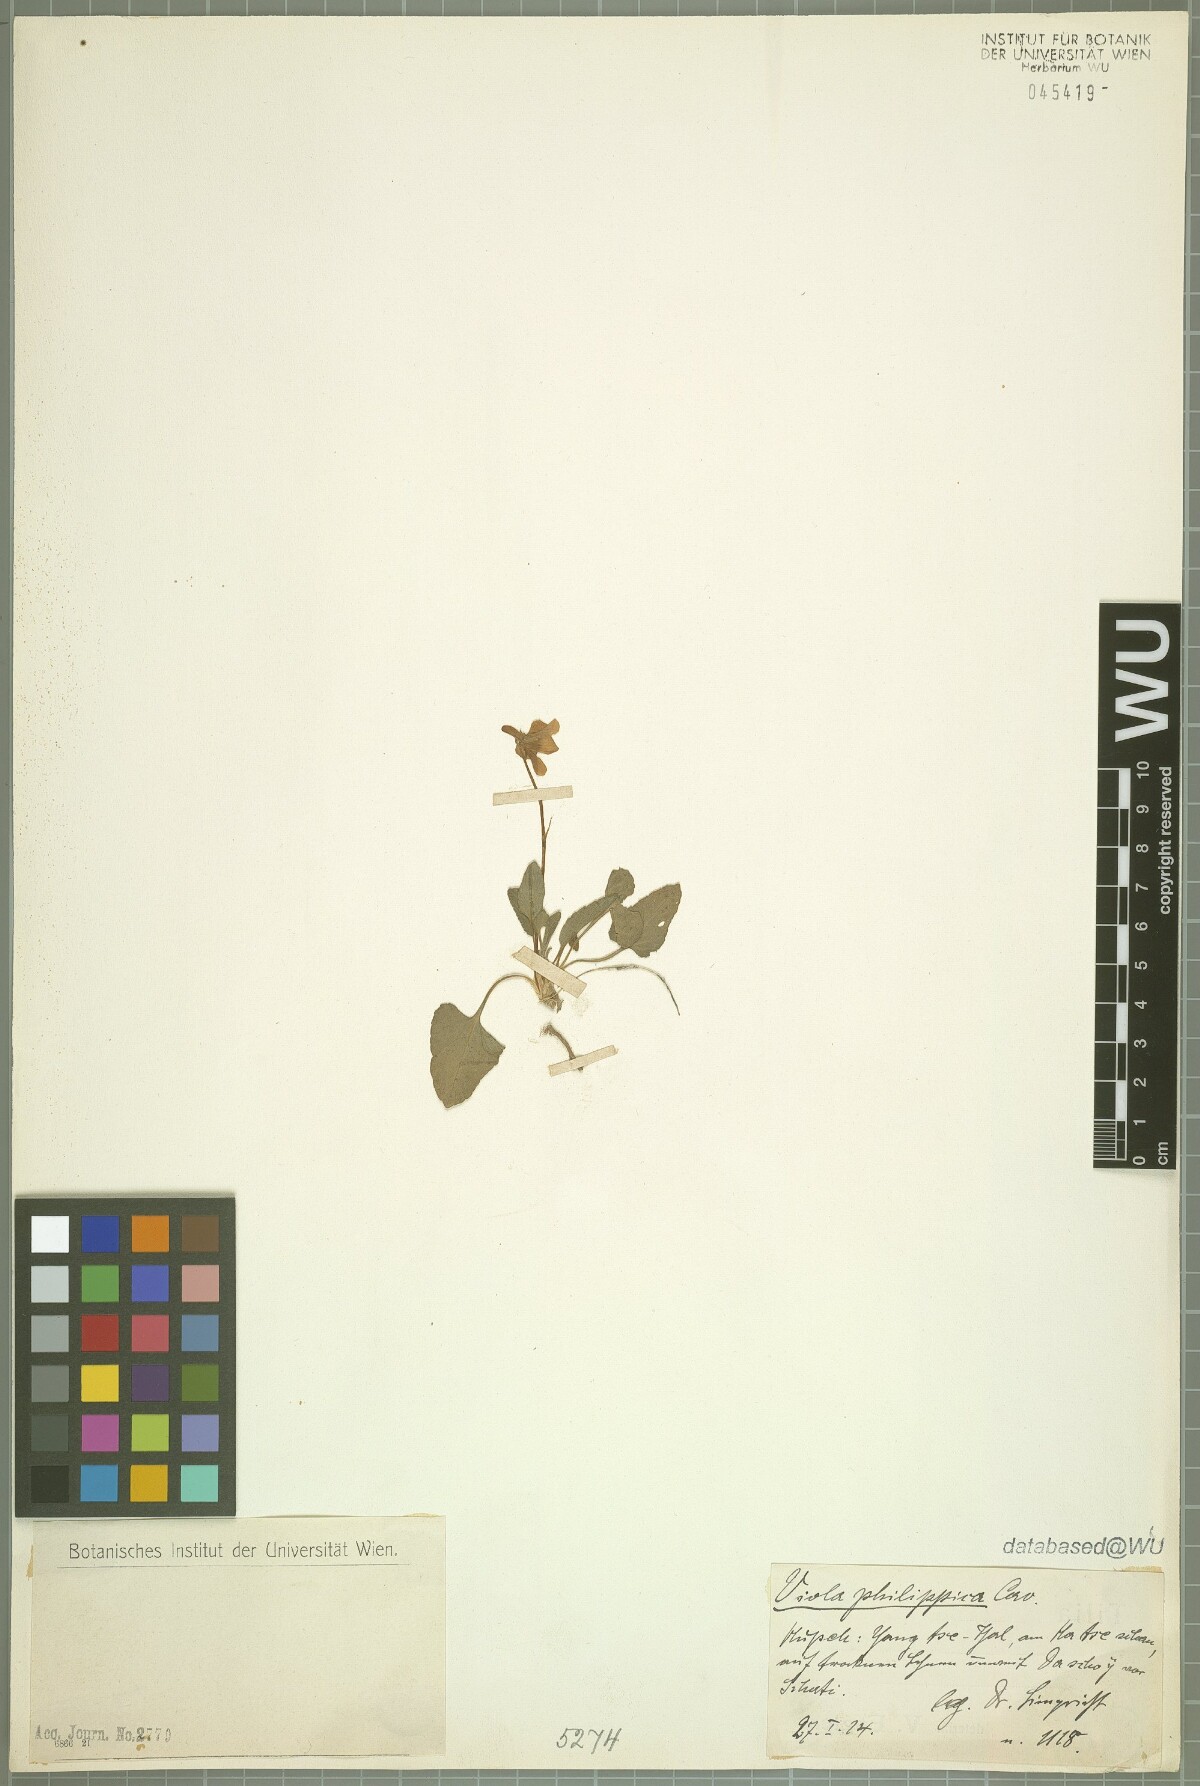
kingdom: Plantae
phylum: Tracheophyta
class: Magnoliopsida
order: Malpighiales
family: Violaceae
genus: Viola
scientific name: Viola philippica
